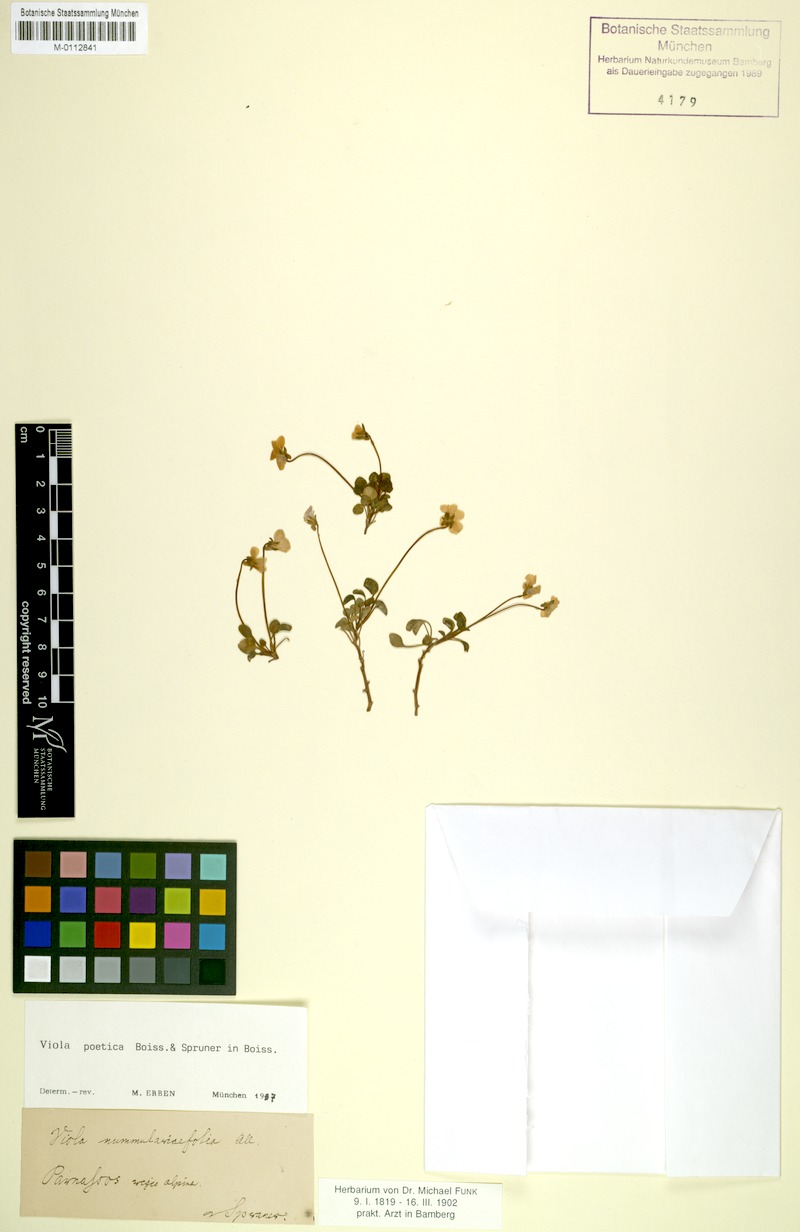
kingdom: Plantae
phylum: Tracheophyta
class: Magnoliopsida
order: Malpighiales
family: Violaceae
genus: Viola
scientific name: Viola poetica
